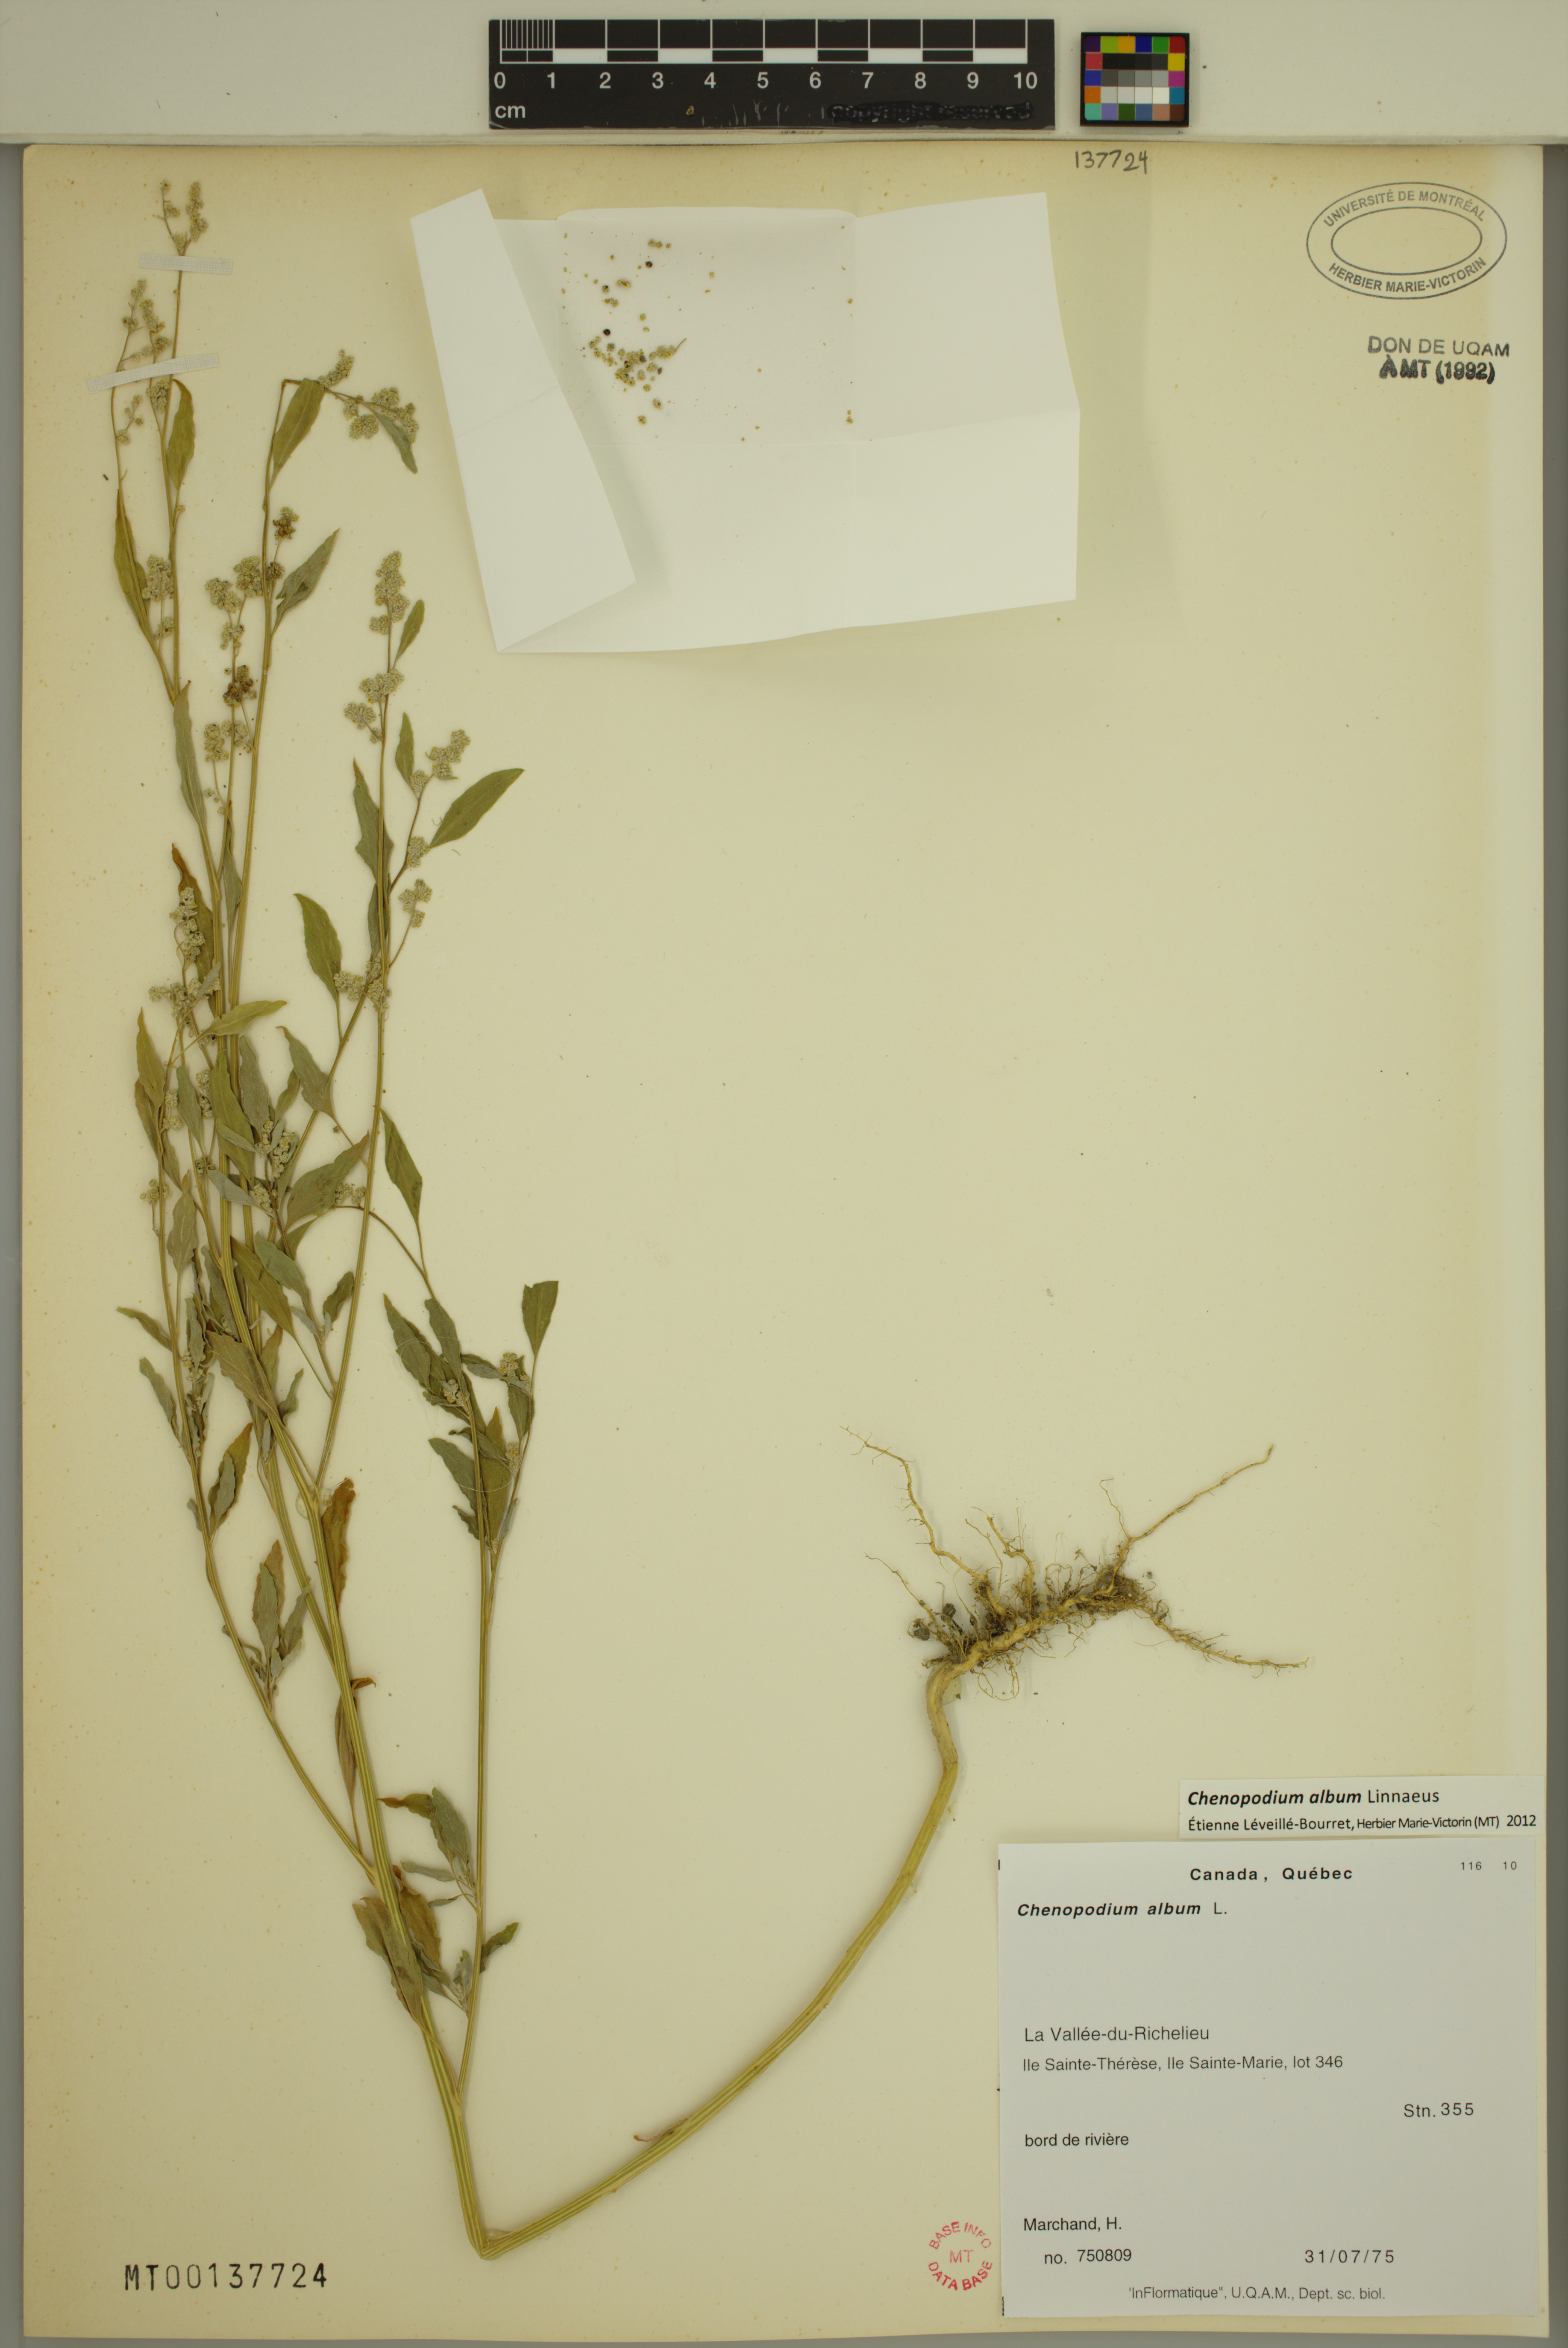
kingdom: Plantae
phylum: Tracheophyta
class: Magnoliopsida
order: Caryophyllales
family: Amaranthaceae
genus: Chenopodium
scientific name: Chenopodium album
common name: Fat-hen
